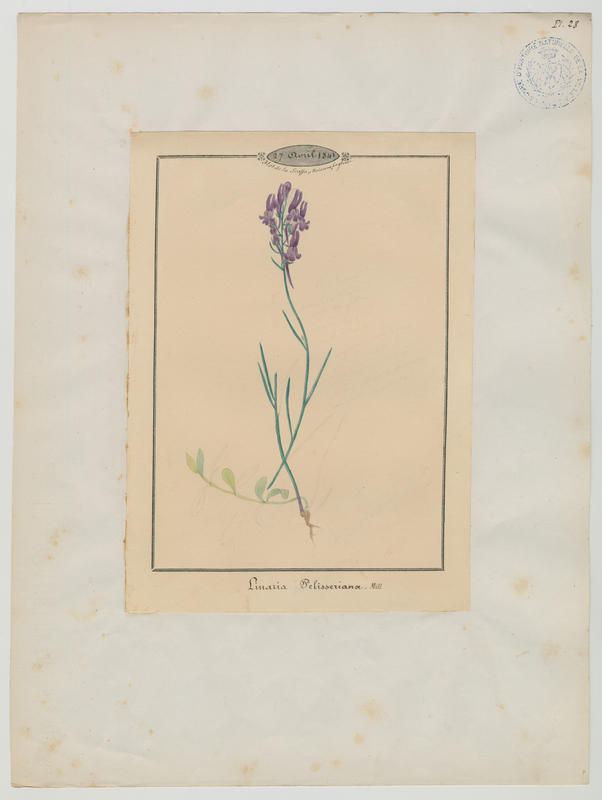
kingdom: Plantae
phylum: Tracheophyta
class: Magnoliopsida
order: Lamiales
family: Plantaginaceae
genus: Linaria
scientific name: Linaria pelisseriana
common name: Jersey toadflax
